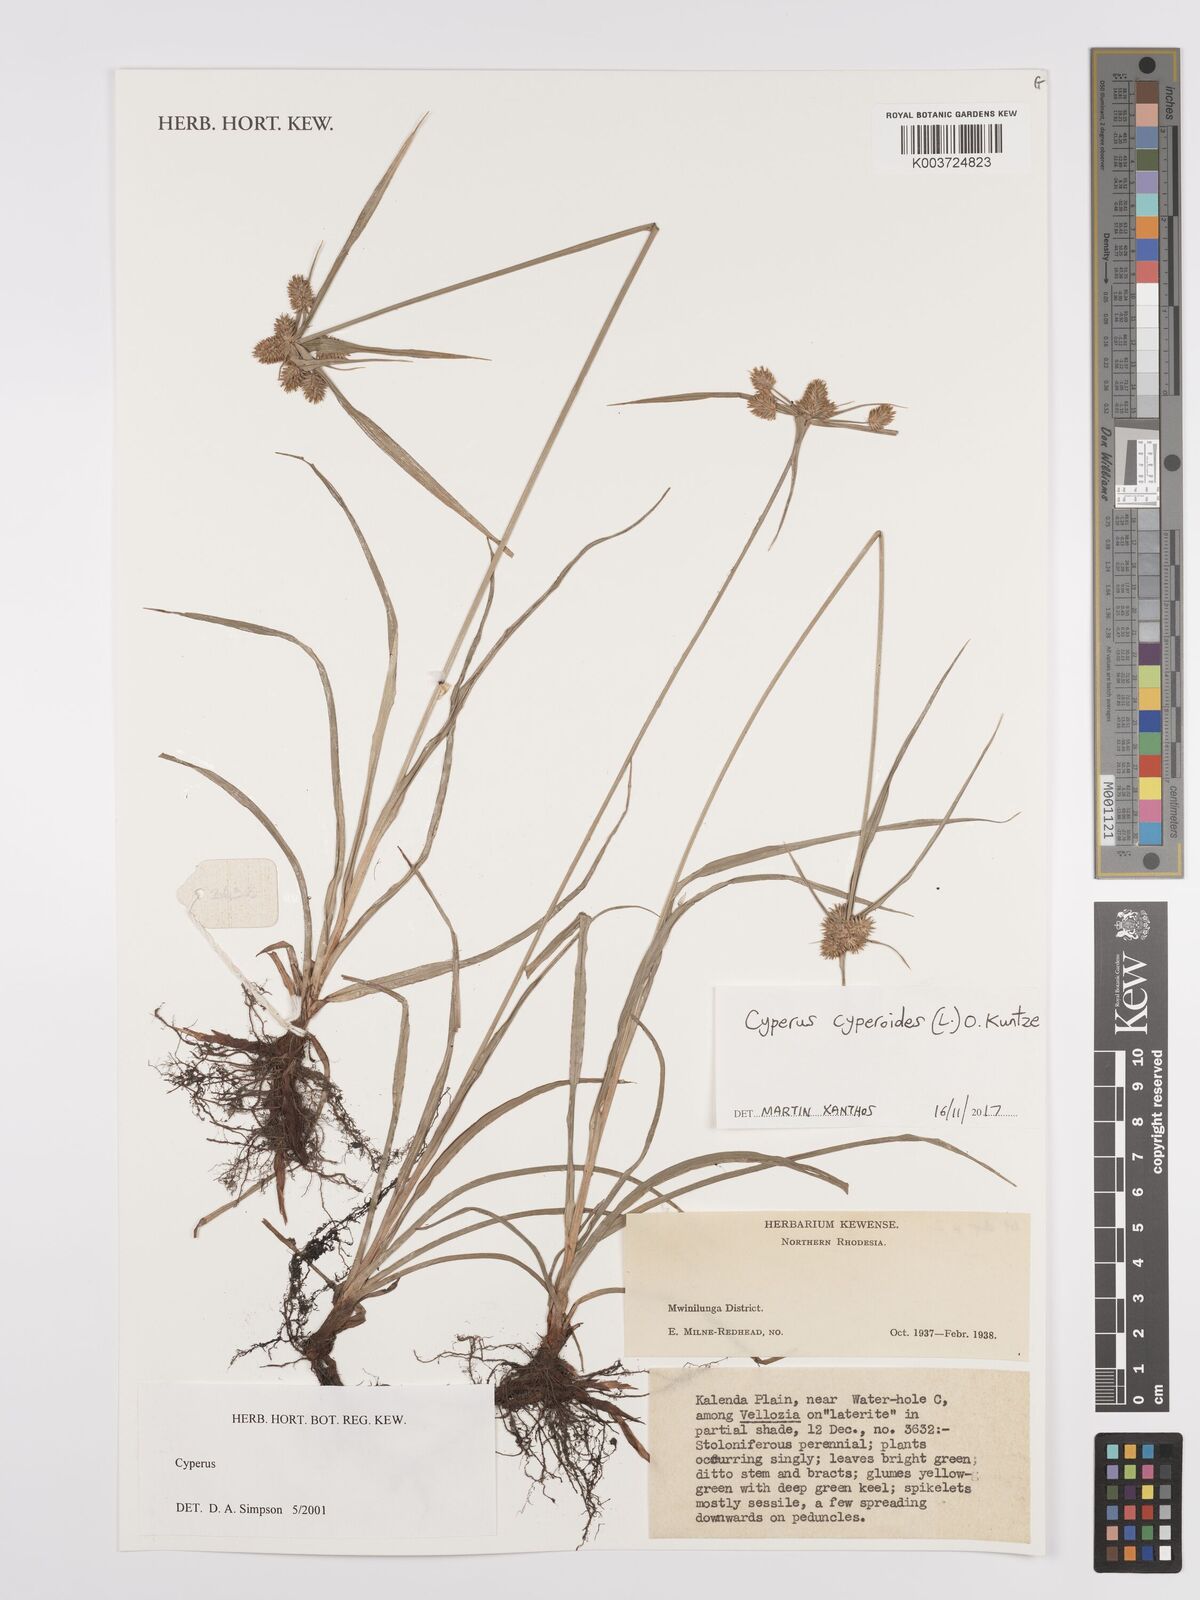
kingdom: Plantae
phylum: Tracheophyta
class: Liliopsida
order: Poales
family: Cyperaceae
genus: Cyperus
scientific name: Cyperus cyperoides
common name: Pacific island flat sedge
